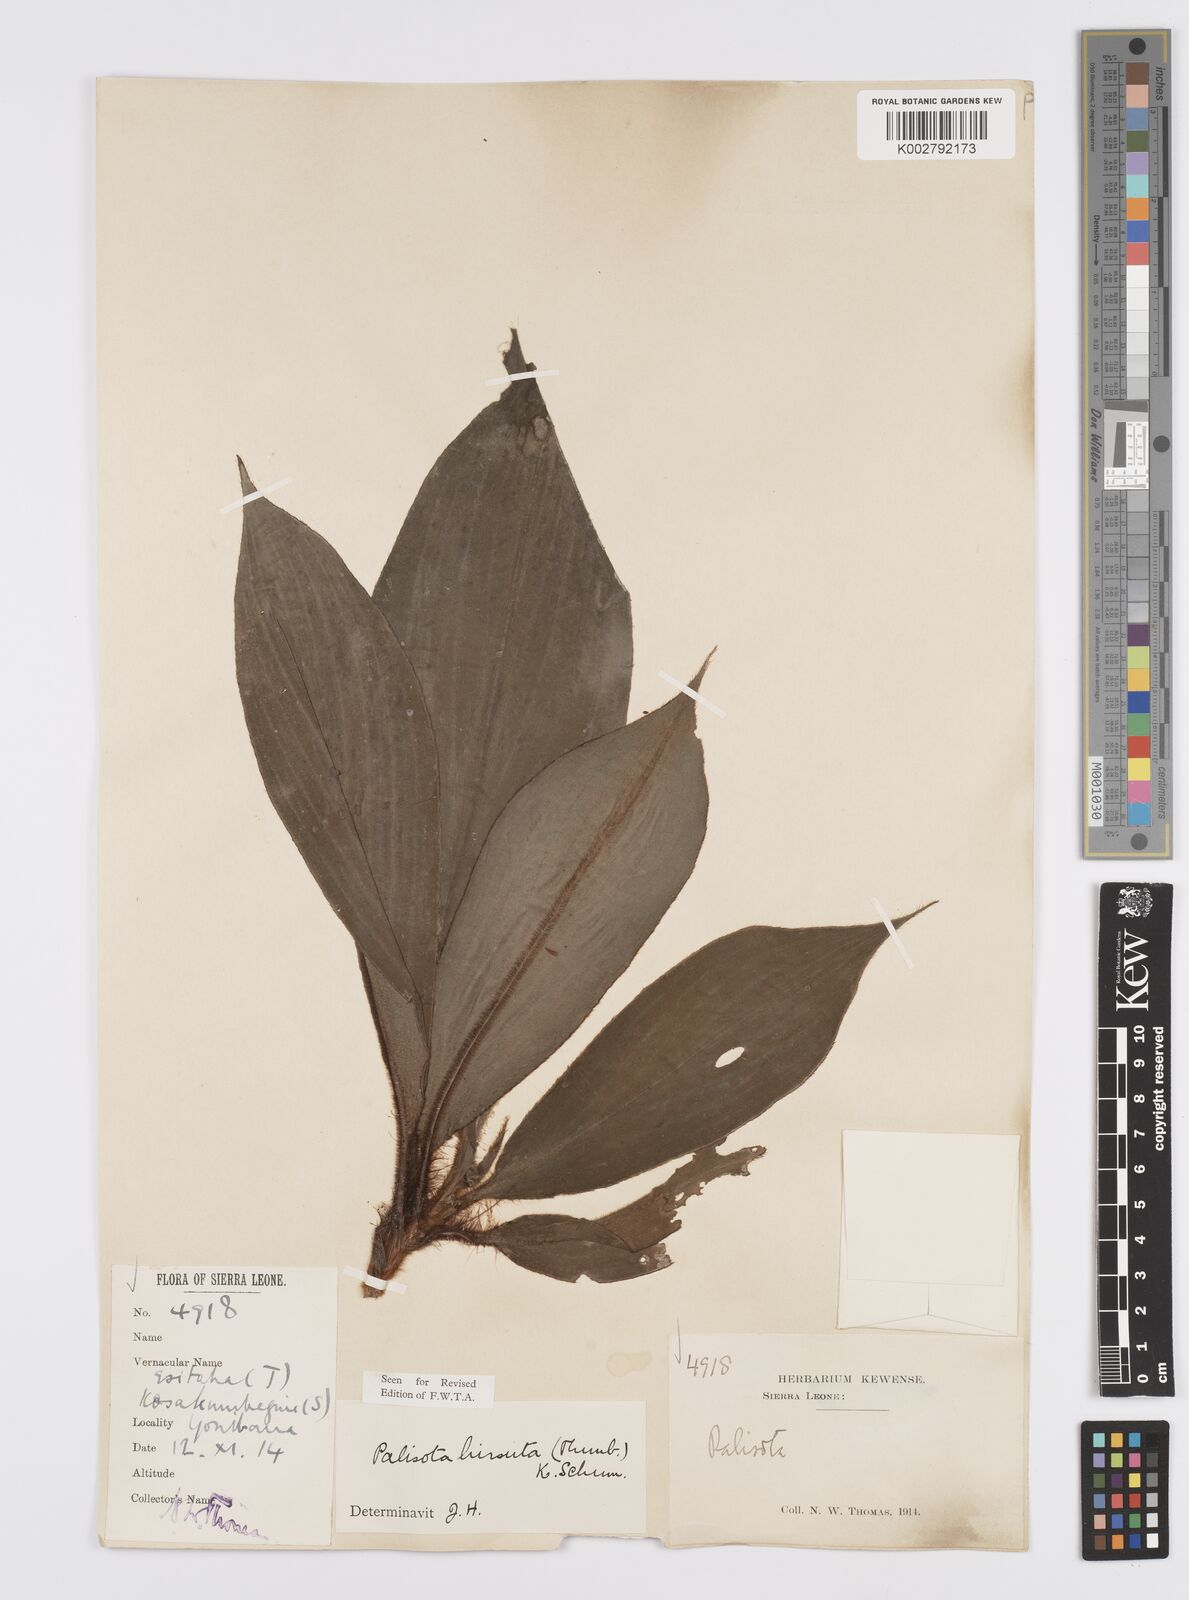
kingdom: Plantae
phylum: Tracheophyta
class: Liliopsida
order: Commelinales
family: Commelinaceae
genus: Palisota
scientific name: Palisota hirsuta
